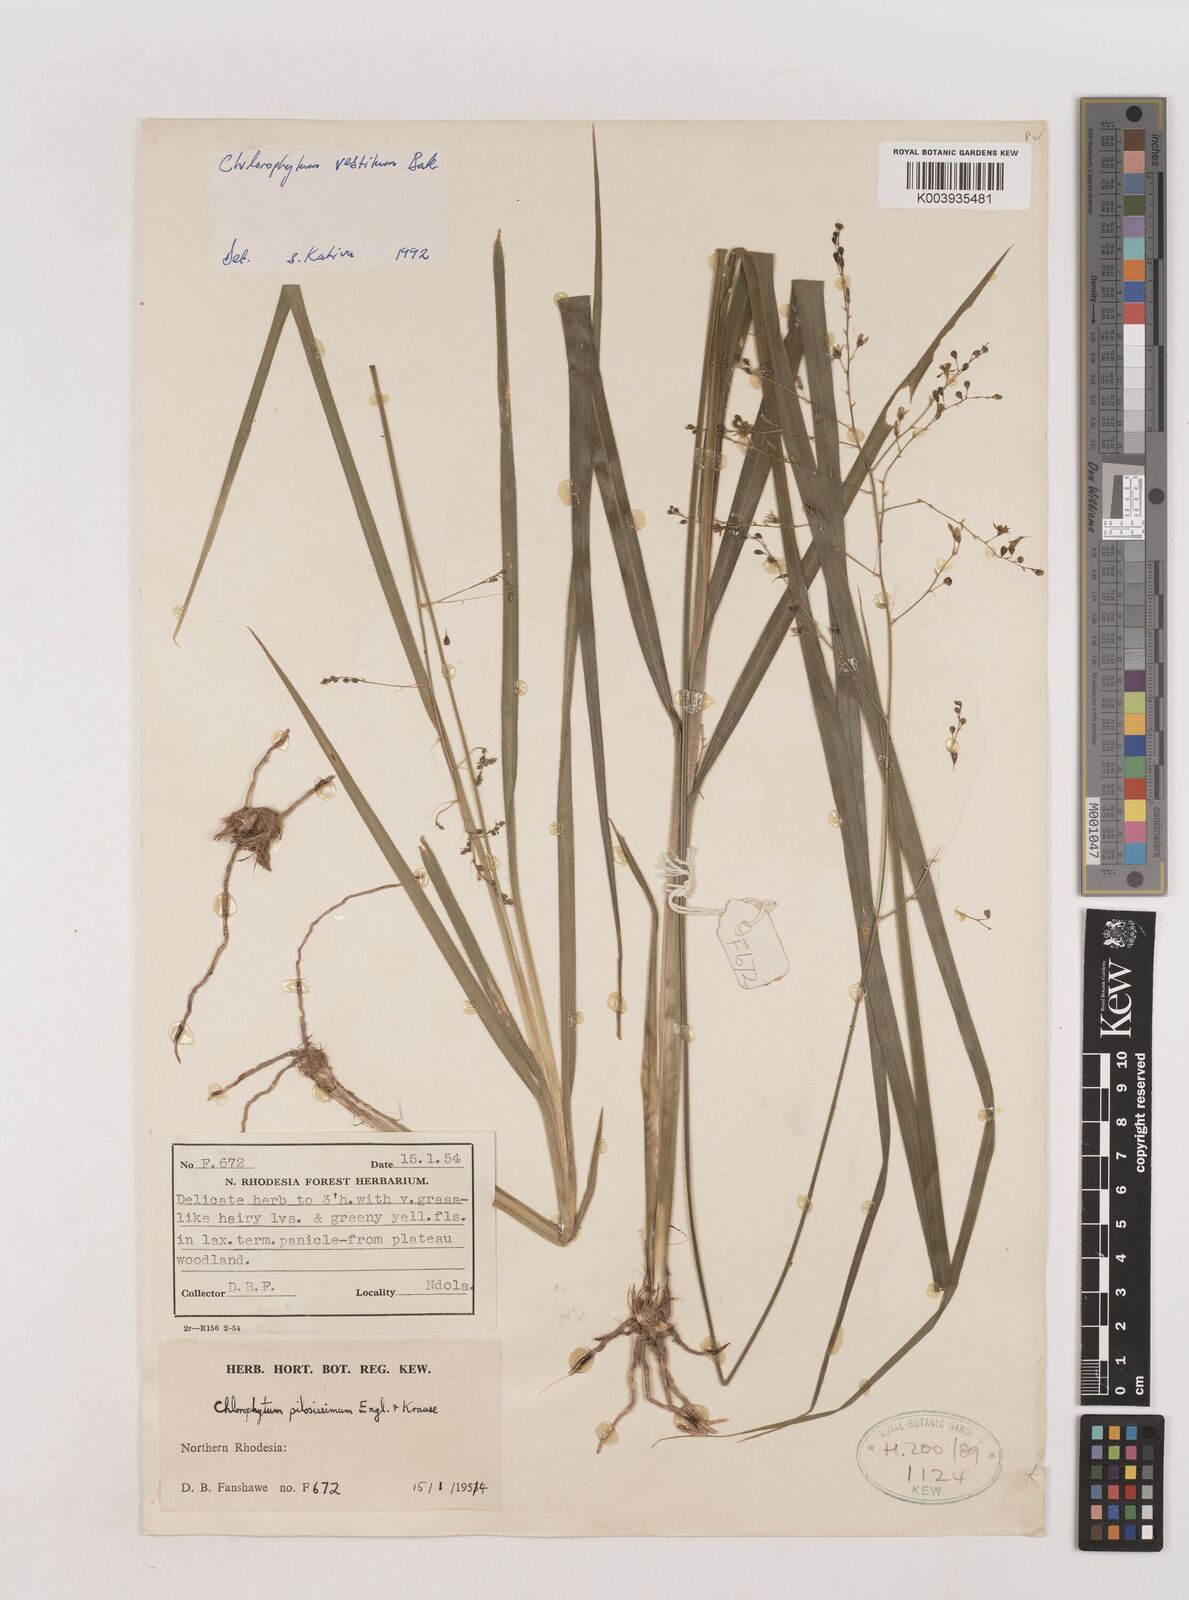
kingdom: Plantae
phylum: Tracheophyta
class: Liliopsida
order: Asparagales
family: Asparagaceae
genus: Chlorophytum
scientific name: Chlorophytum vestitum
